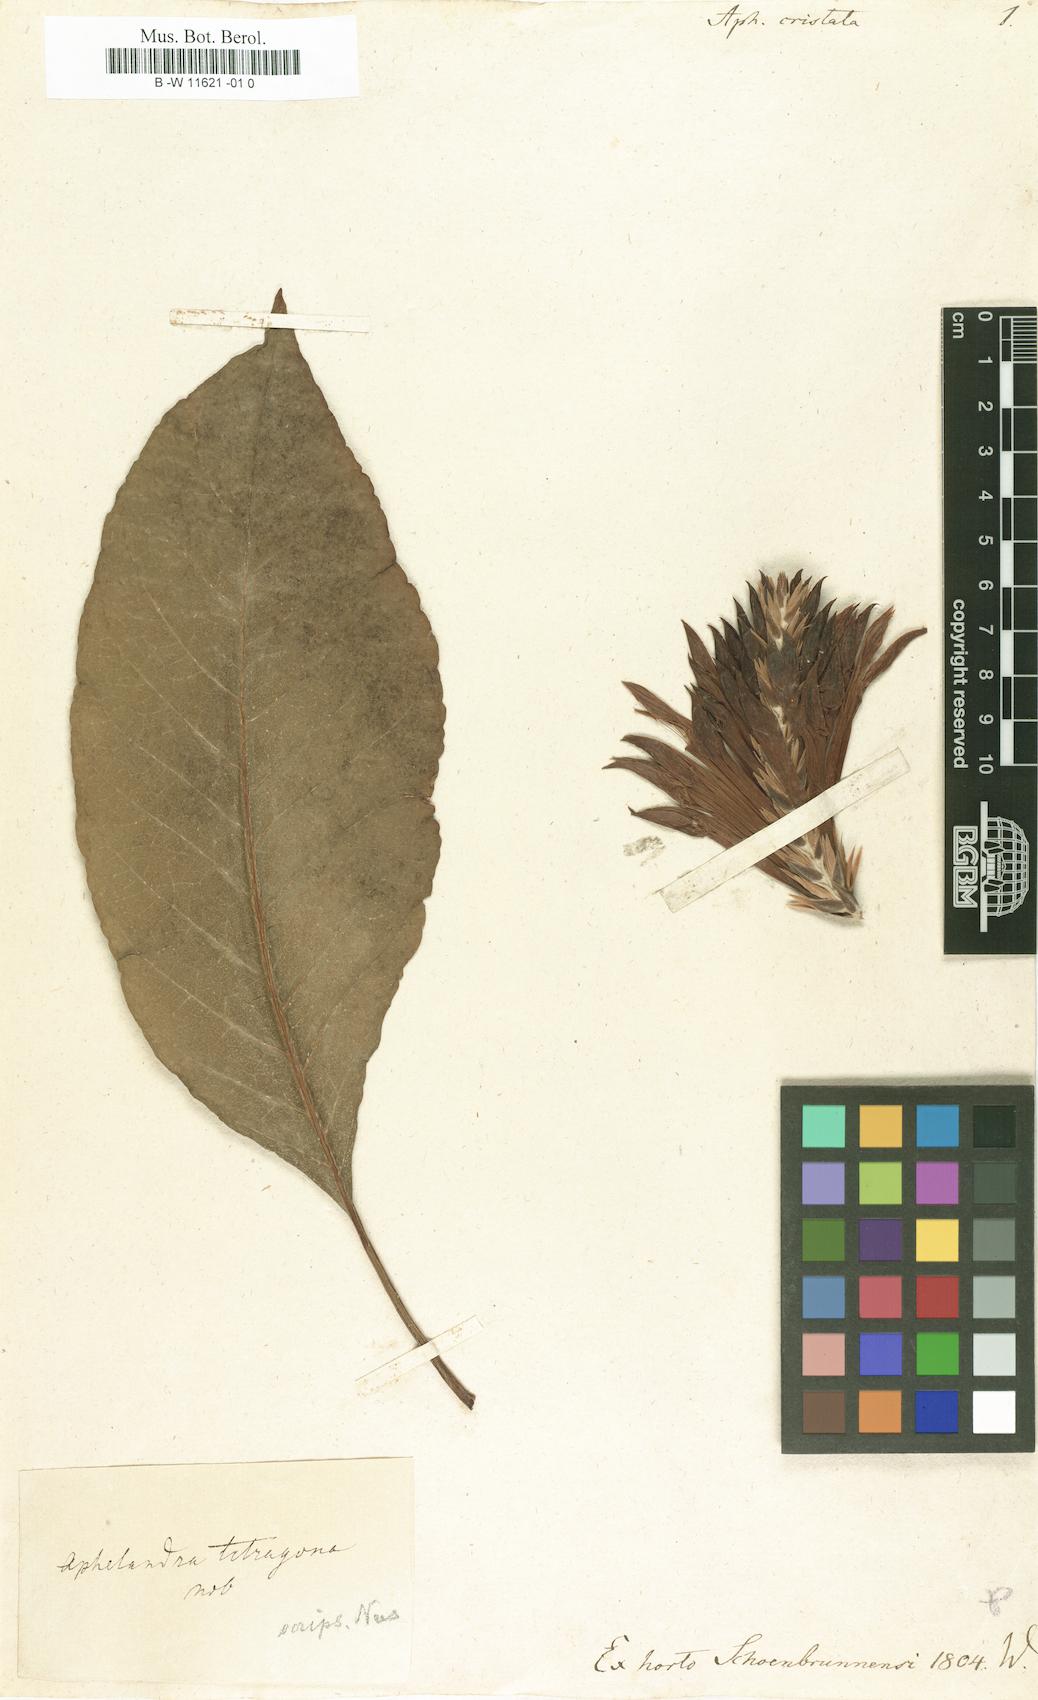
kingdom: Plantae
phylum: Tracheophyta
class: Magnoliopsida
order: Lamiales
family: Acanthaceae
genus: Aphelandra
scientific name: Aphelandra
